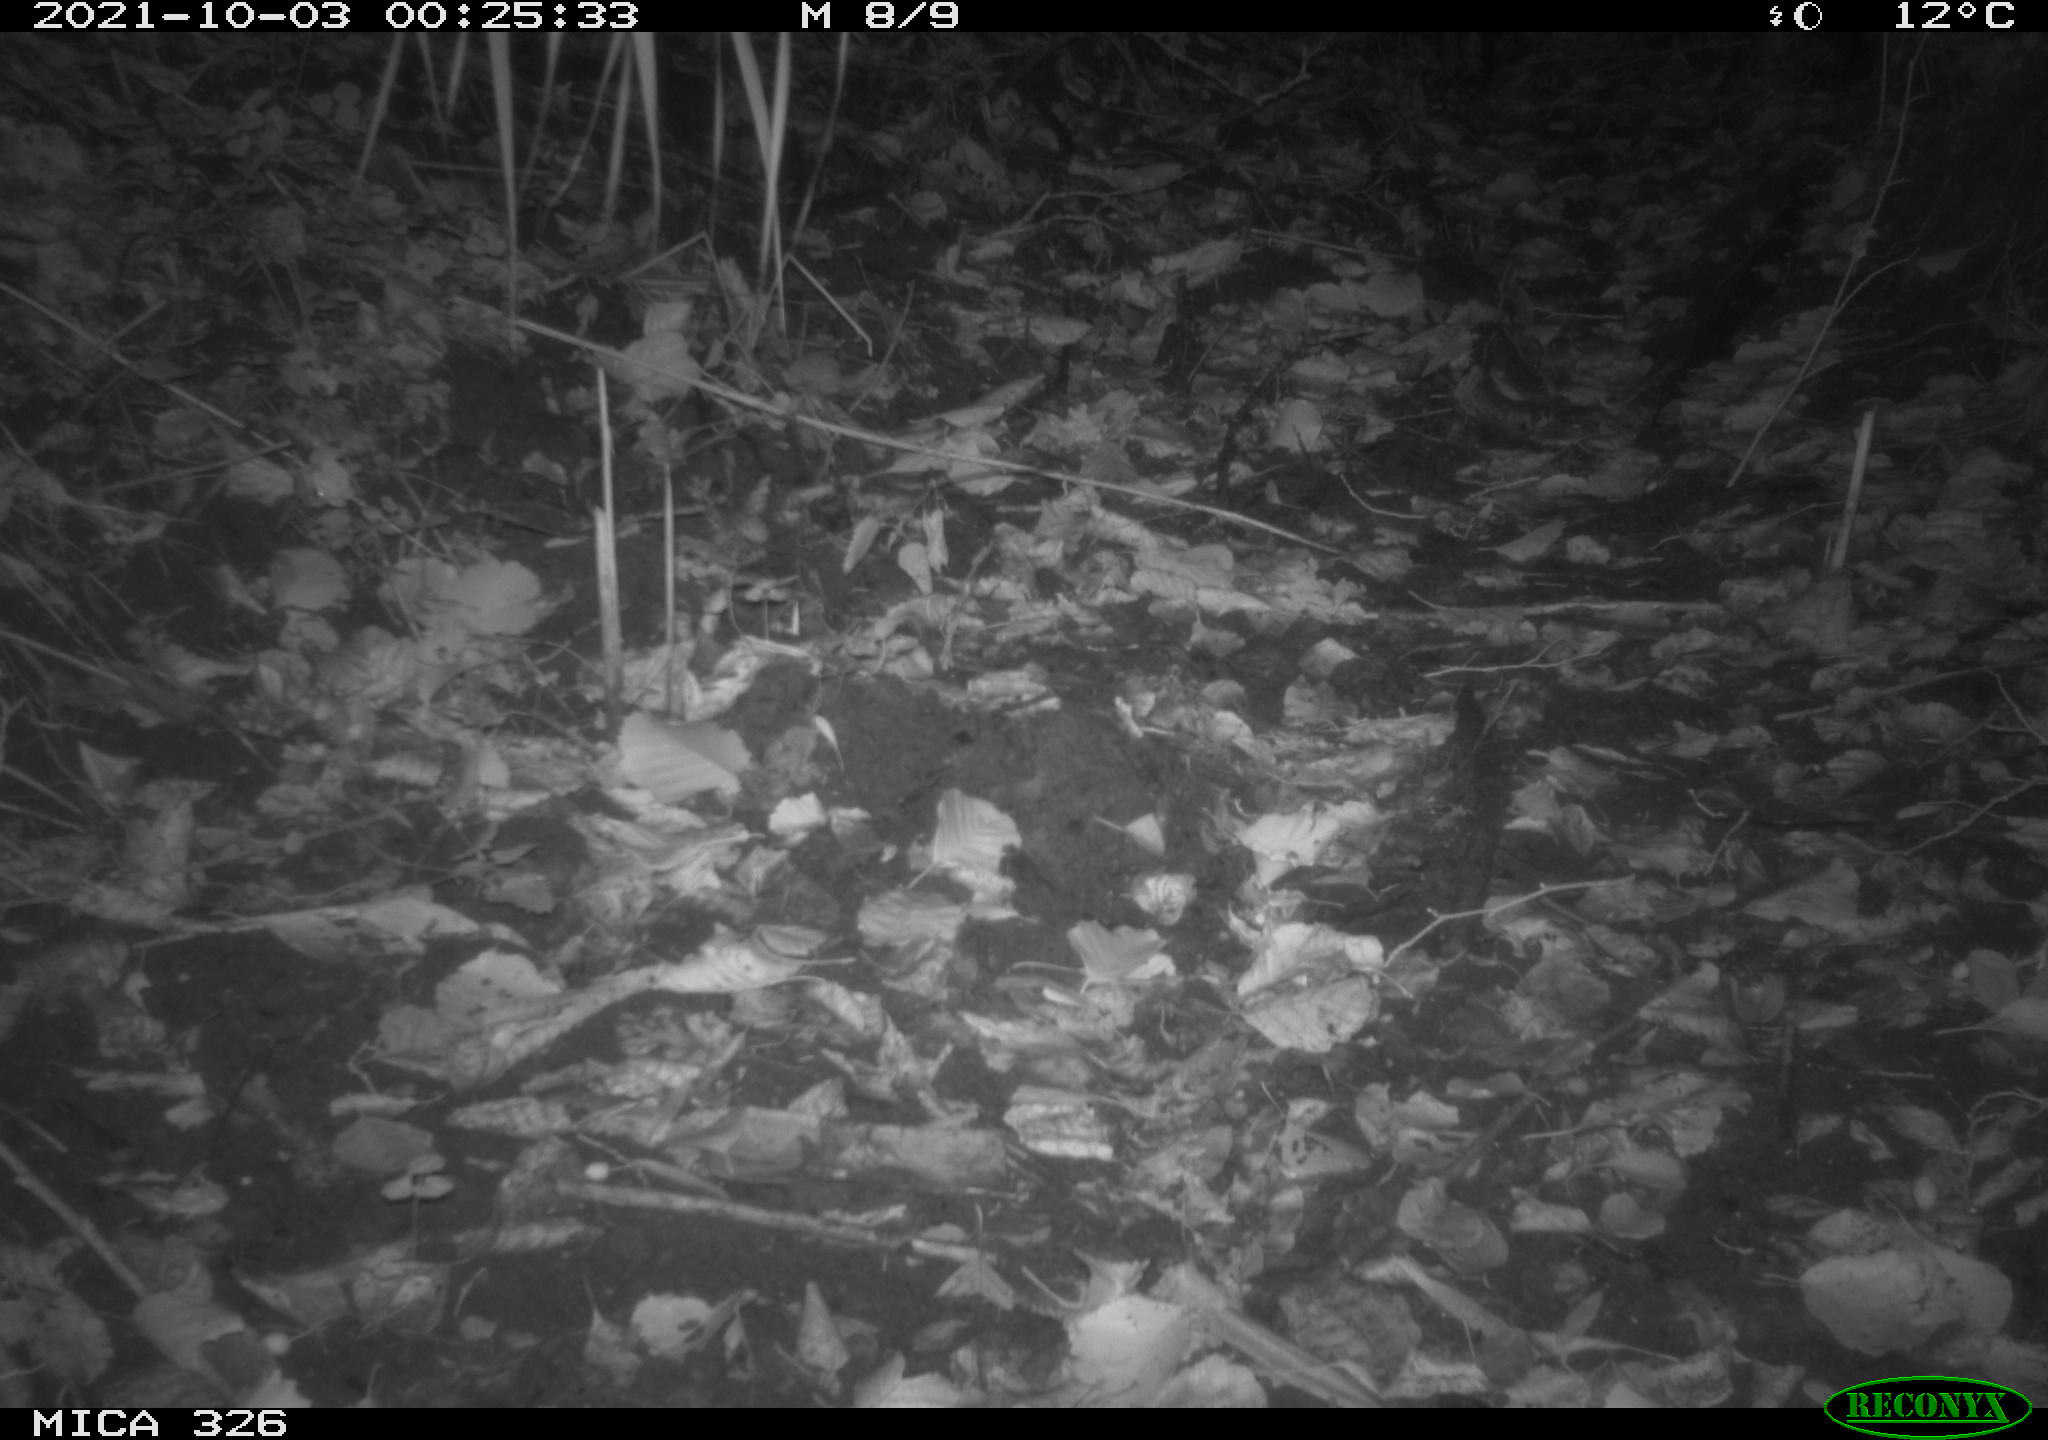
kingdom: Animalia
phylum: Chordata
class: Mammalia
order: Rodentia
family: Myocastoridae
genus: Myocastor
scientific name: Myocastor coypus
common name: Coypu
